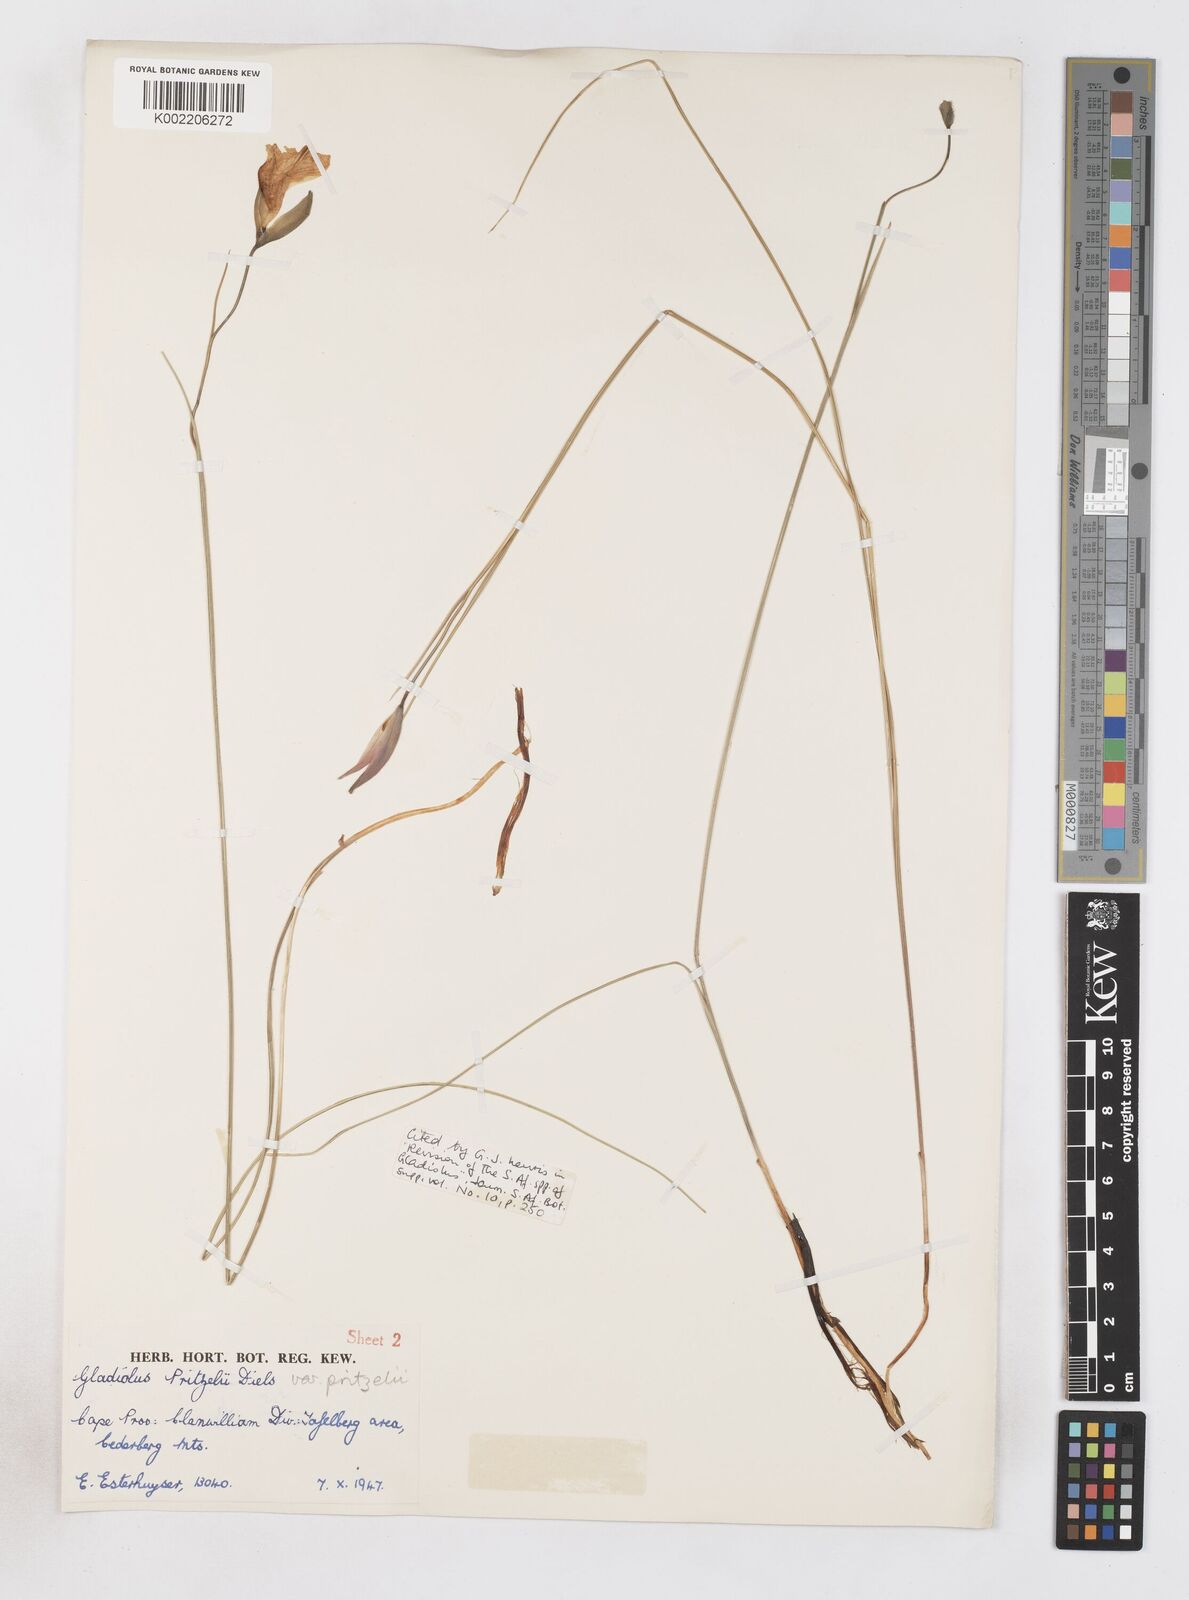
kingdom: Plantae
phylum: Tracheophyta
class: Liliopsida
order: Asparagales
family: Iridaceae
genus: Gladiolus
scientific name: Gladiolus pritzelii
